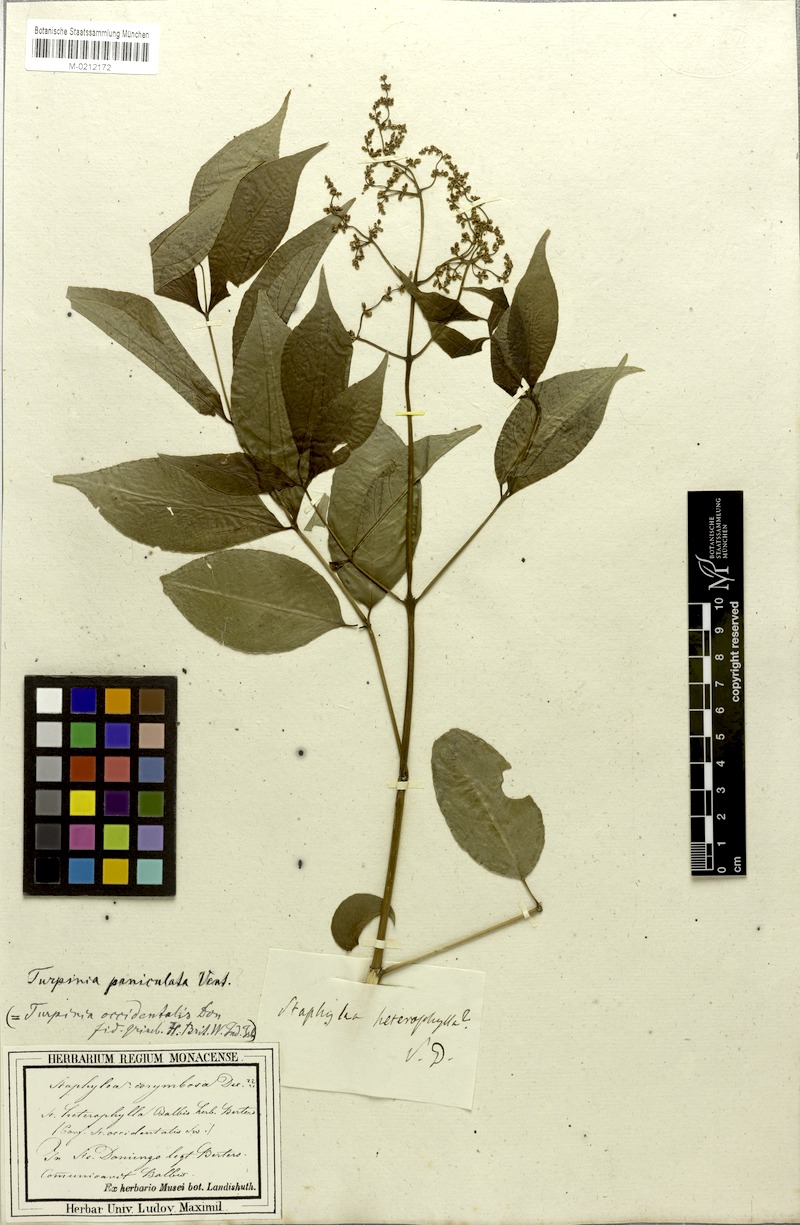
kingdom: Plantae
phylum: Tracheophyta
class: Magnoliopsida
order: Crossosomatales
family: Staphyleaceae
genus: Turpinia
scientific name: Turpinia occidentalis
